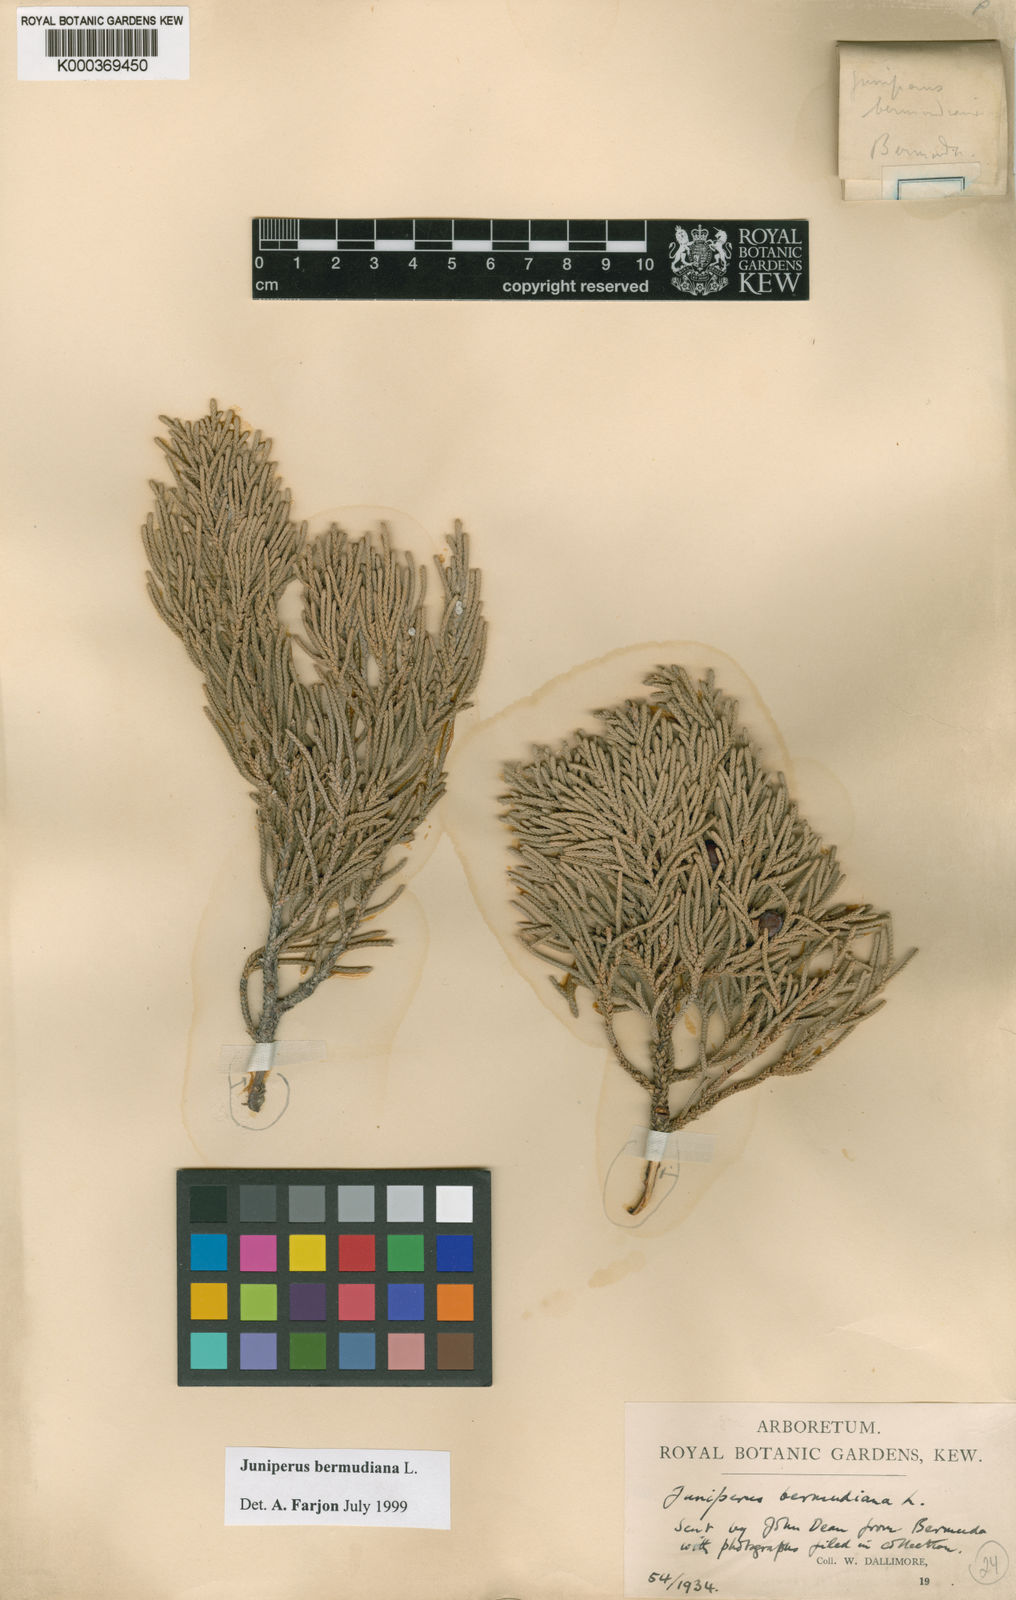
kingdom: Plantae
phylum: Tracheophyta
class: Pinopsida
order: Pinales
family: Cupressaceae
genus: Juniperus
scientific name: Juniperus bermudiana
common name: Bermuda juniper
